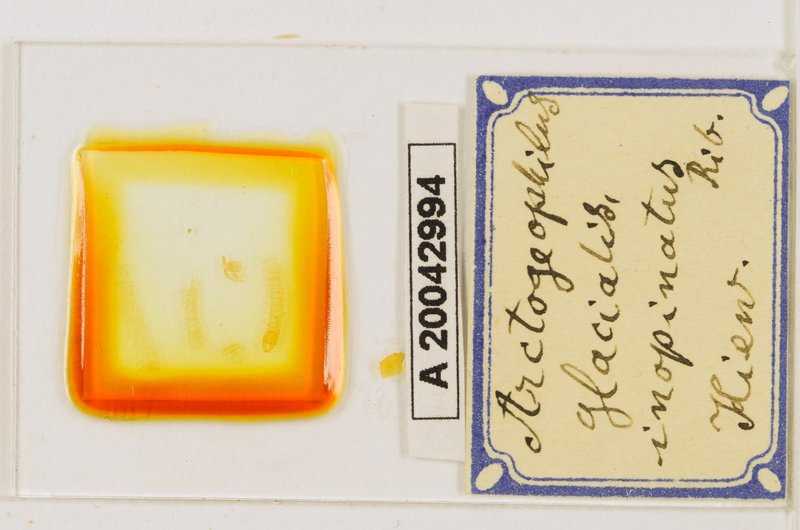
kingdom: Animalia
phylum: Arthropoda
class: Chilopoda
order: Geophilomorpha
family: Geophilidae
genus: Arctogeophilus
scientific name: Arctogeophilus glacialis
